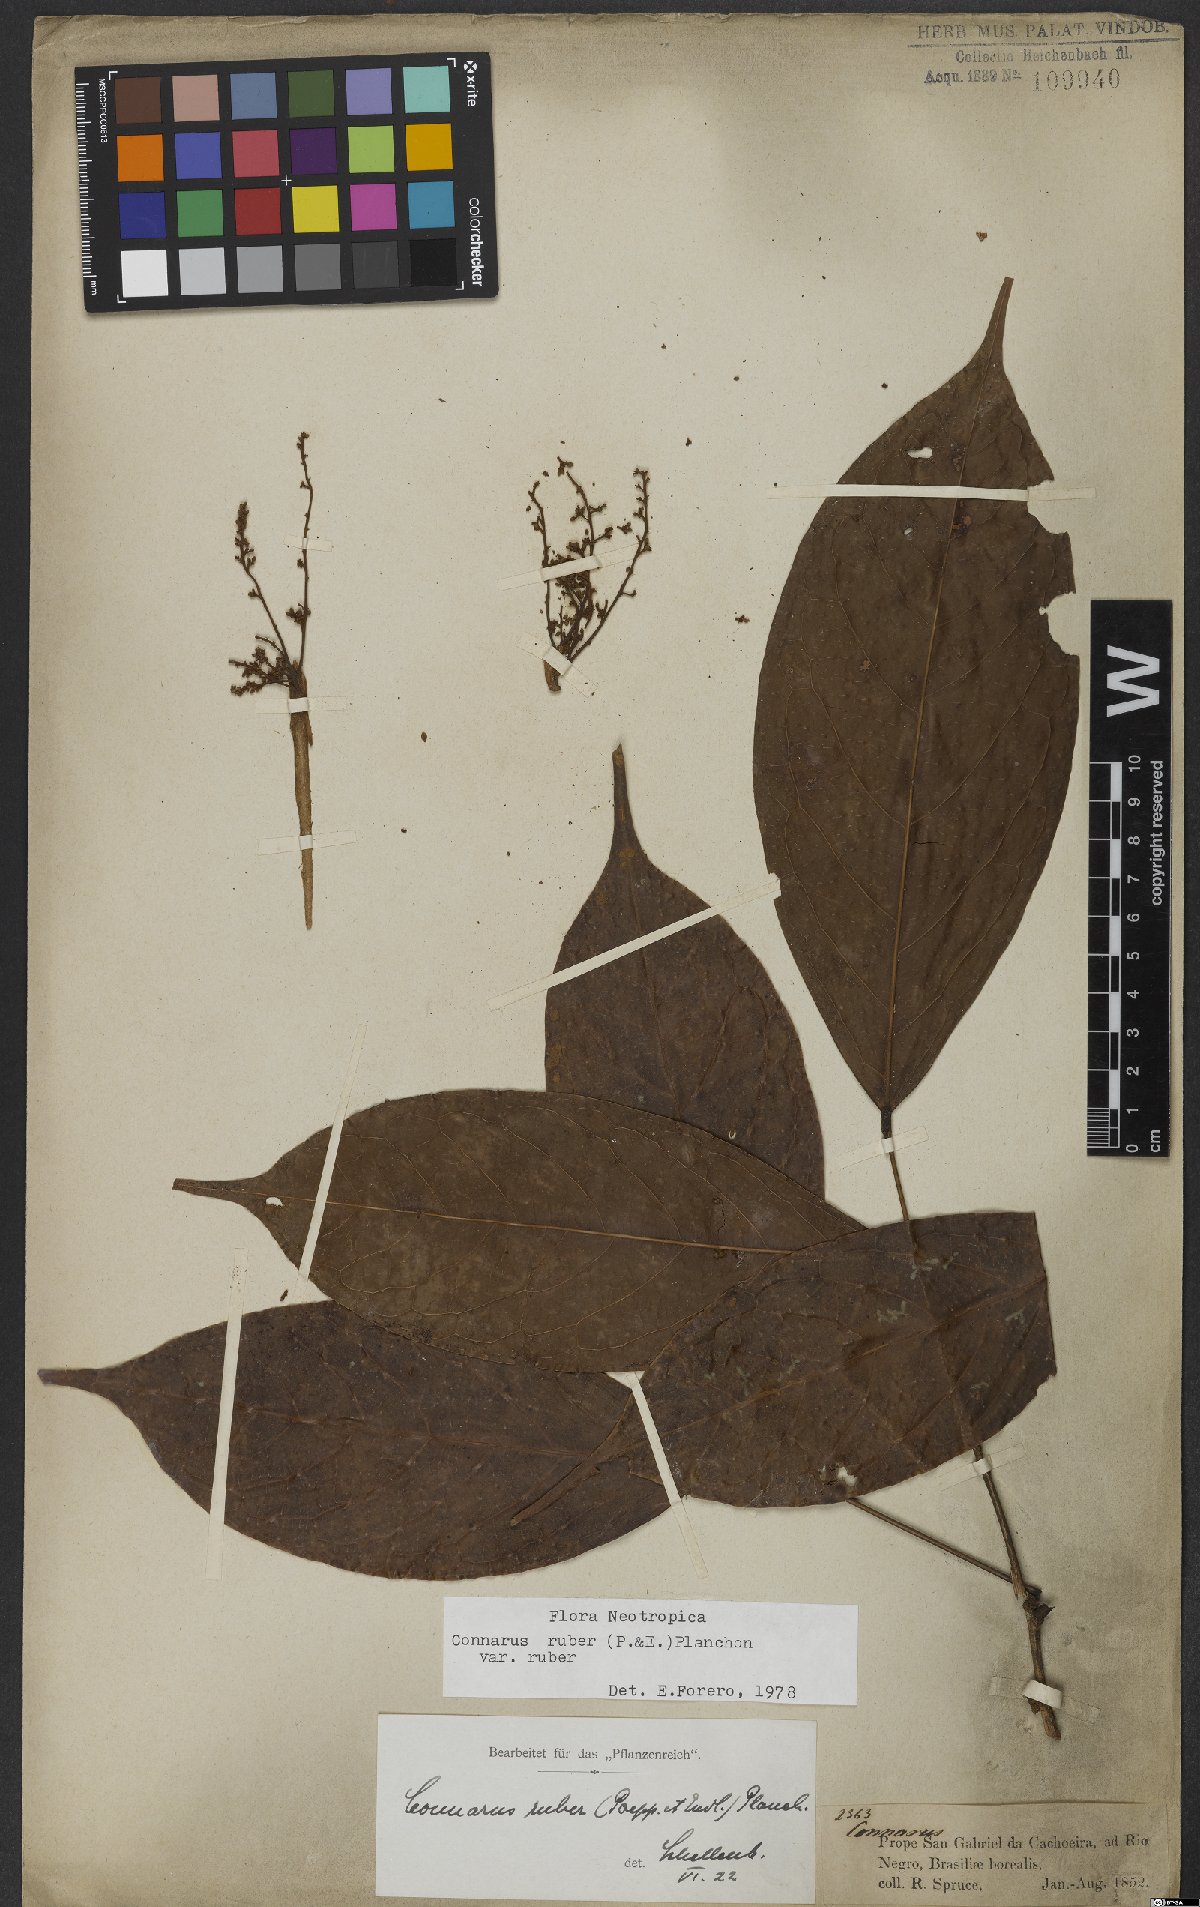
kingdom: Plantae
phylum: Tracheophyta
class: Magnoliopsida
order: Oxalidales
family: Connaraceae
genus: Connarus
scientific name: Connarus ruber
